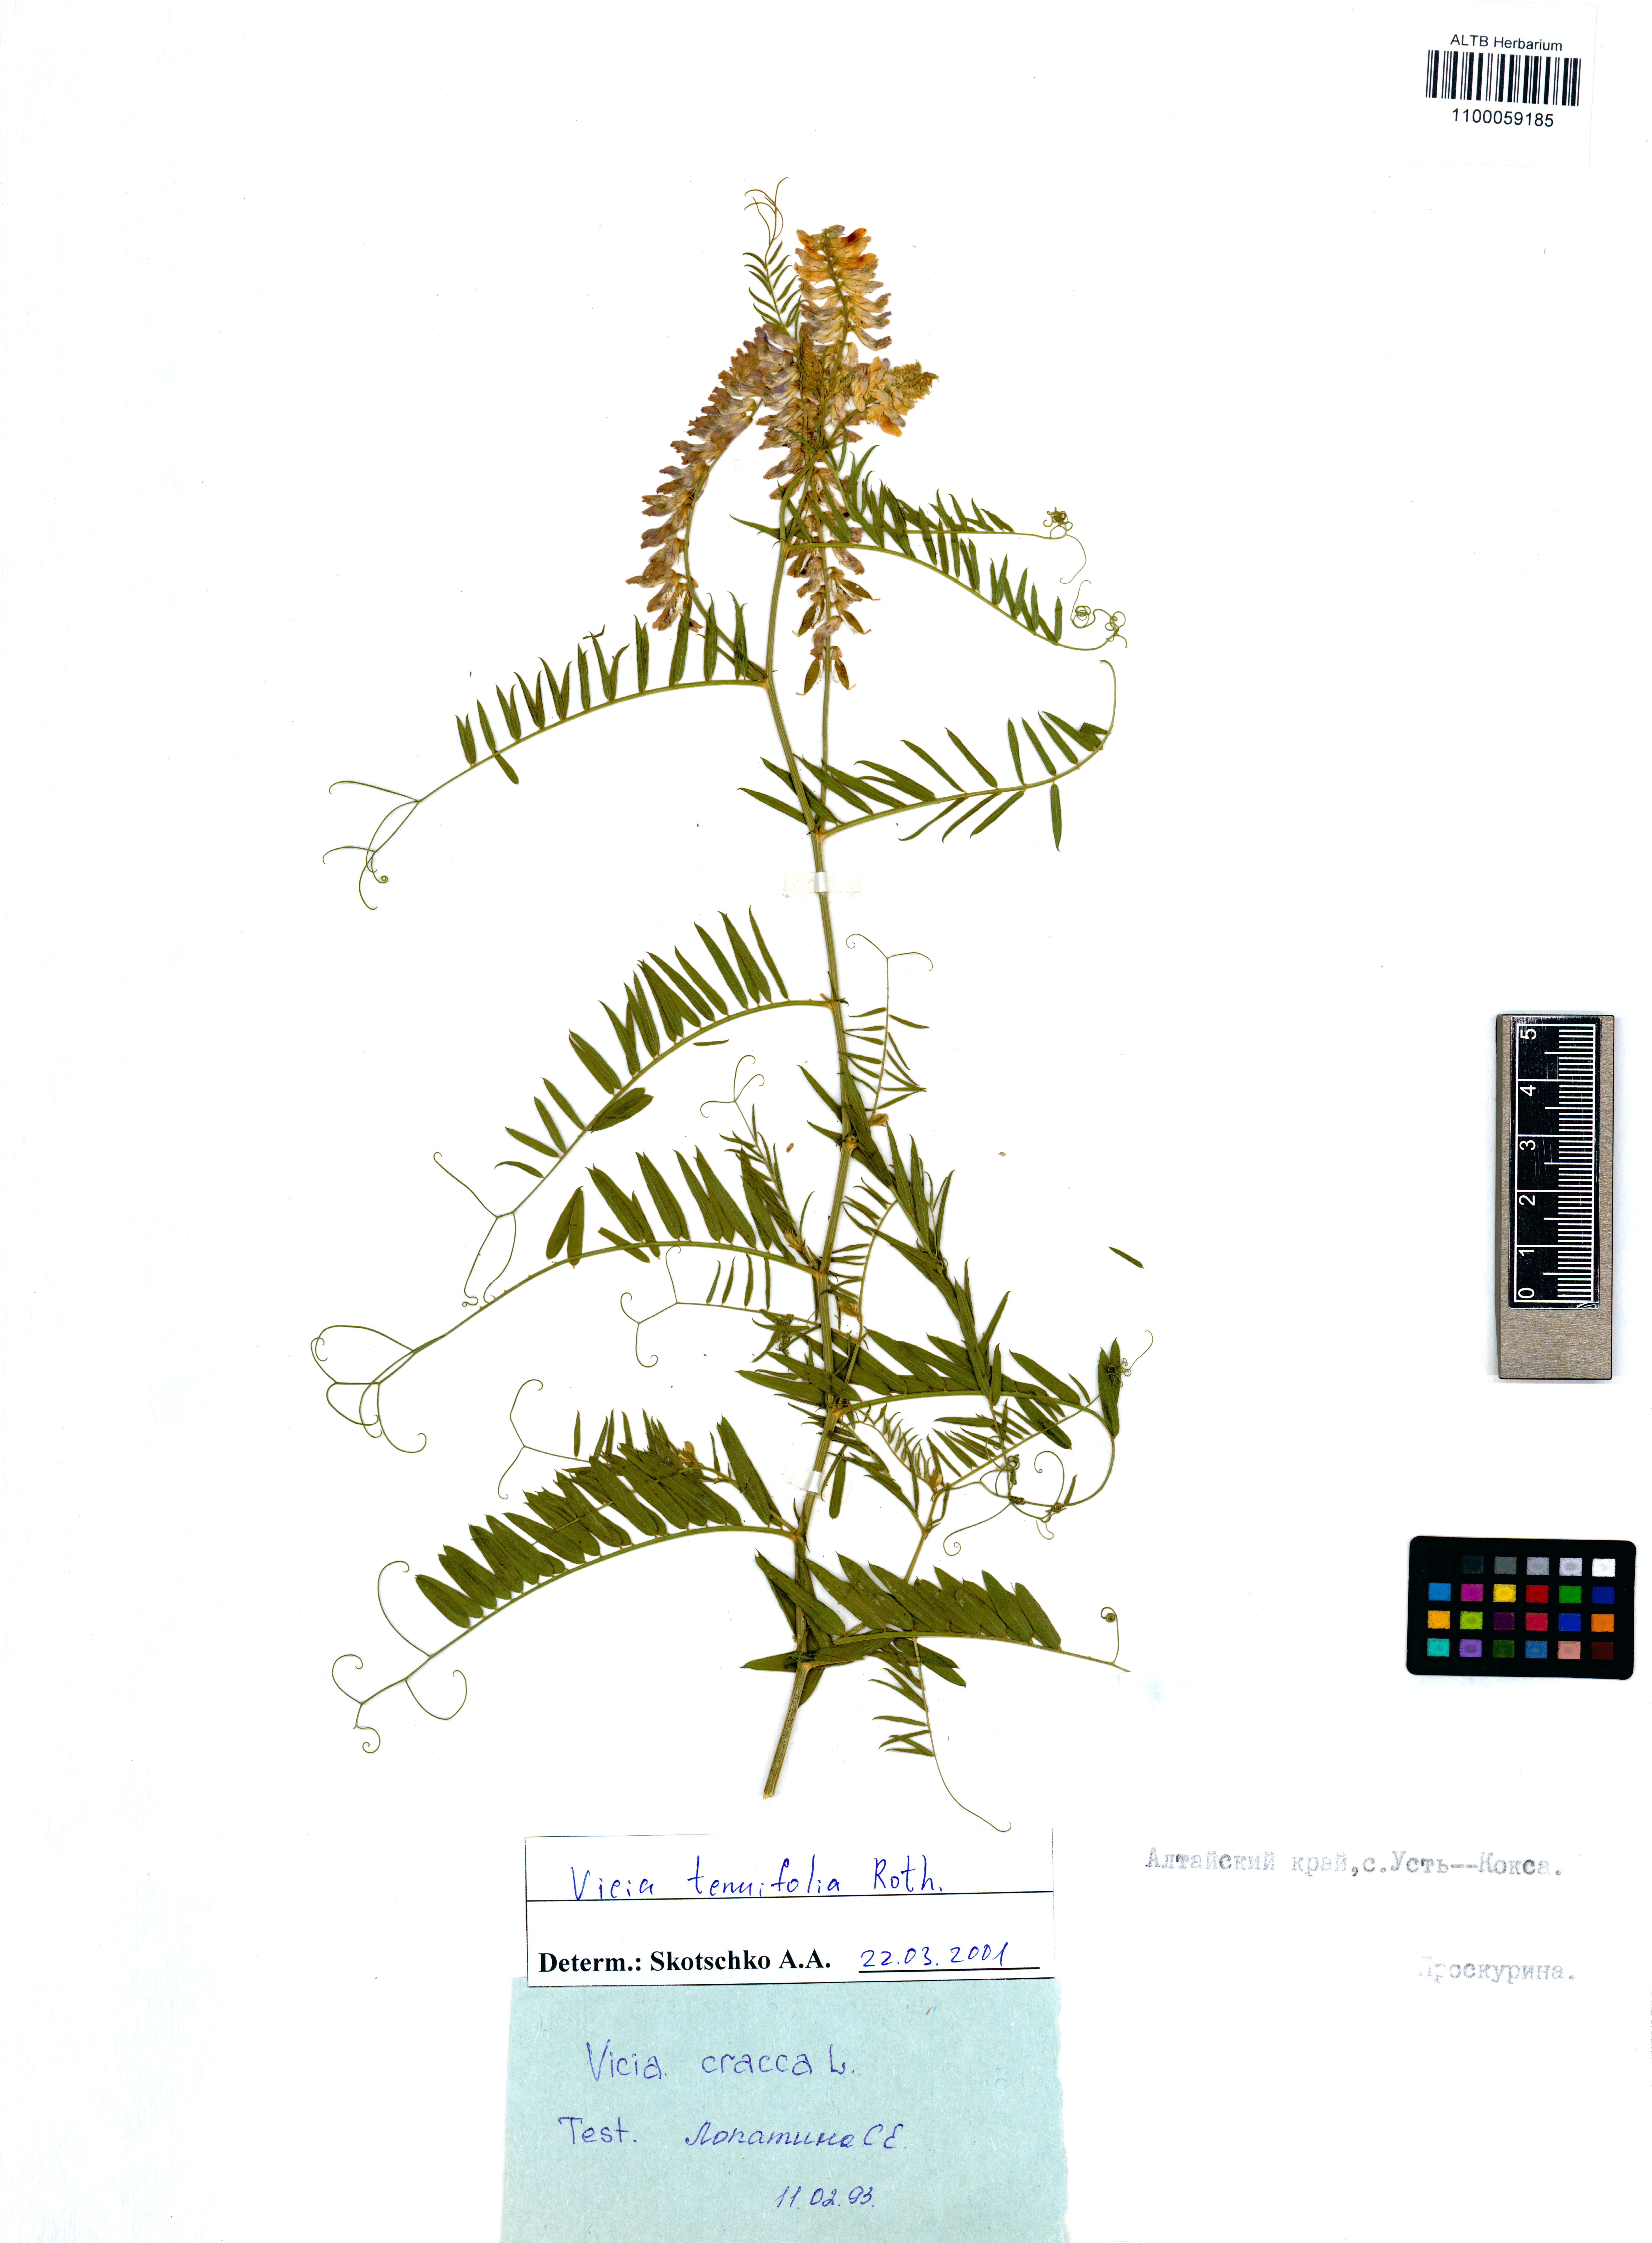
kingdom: Plantae
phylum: Tracheophyta
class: Magnoliopsida
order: Fabales
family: Fabaceae
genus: Vicia
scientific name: Vicia tenuifolia
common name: Fine-leaved vetch
